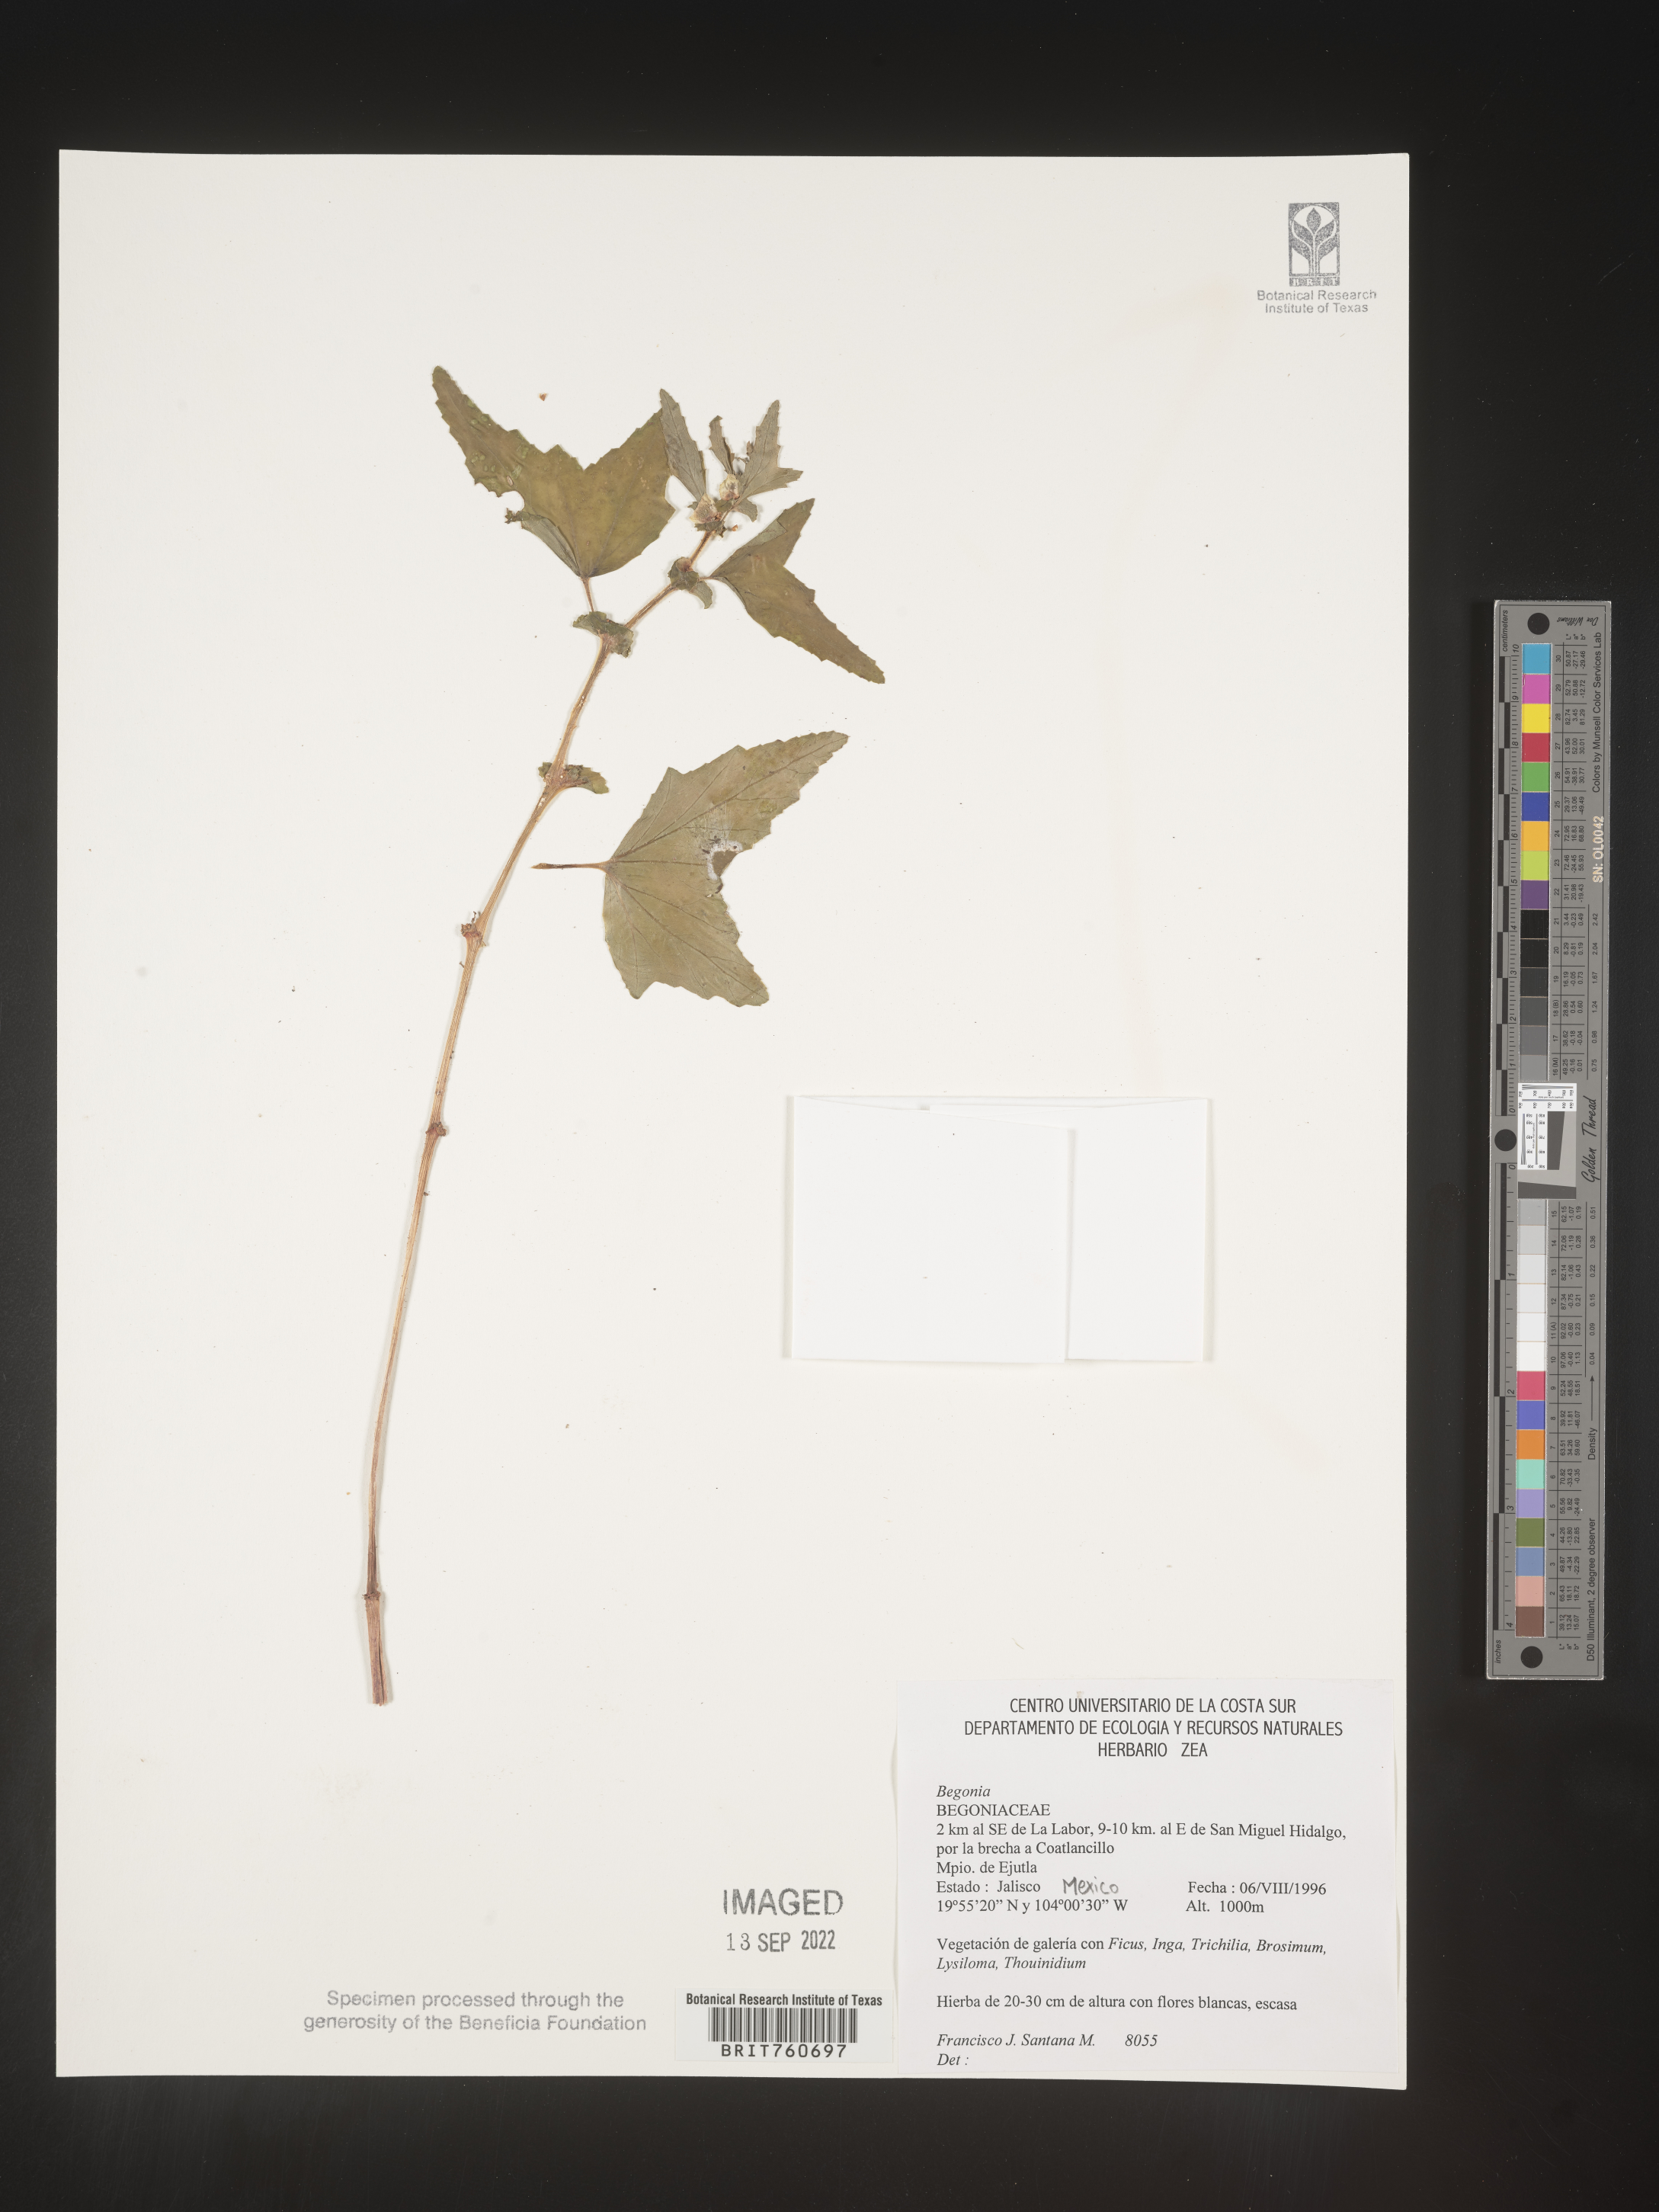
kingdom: Plantae
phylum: Tracheophyta
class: Magnoliopsida
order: Cucurbitales
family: Begoniaceae
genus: Begonia
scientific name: Begonia
